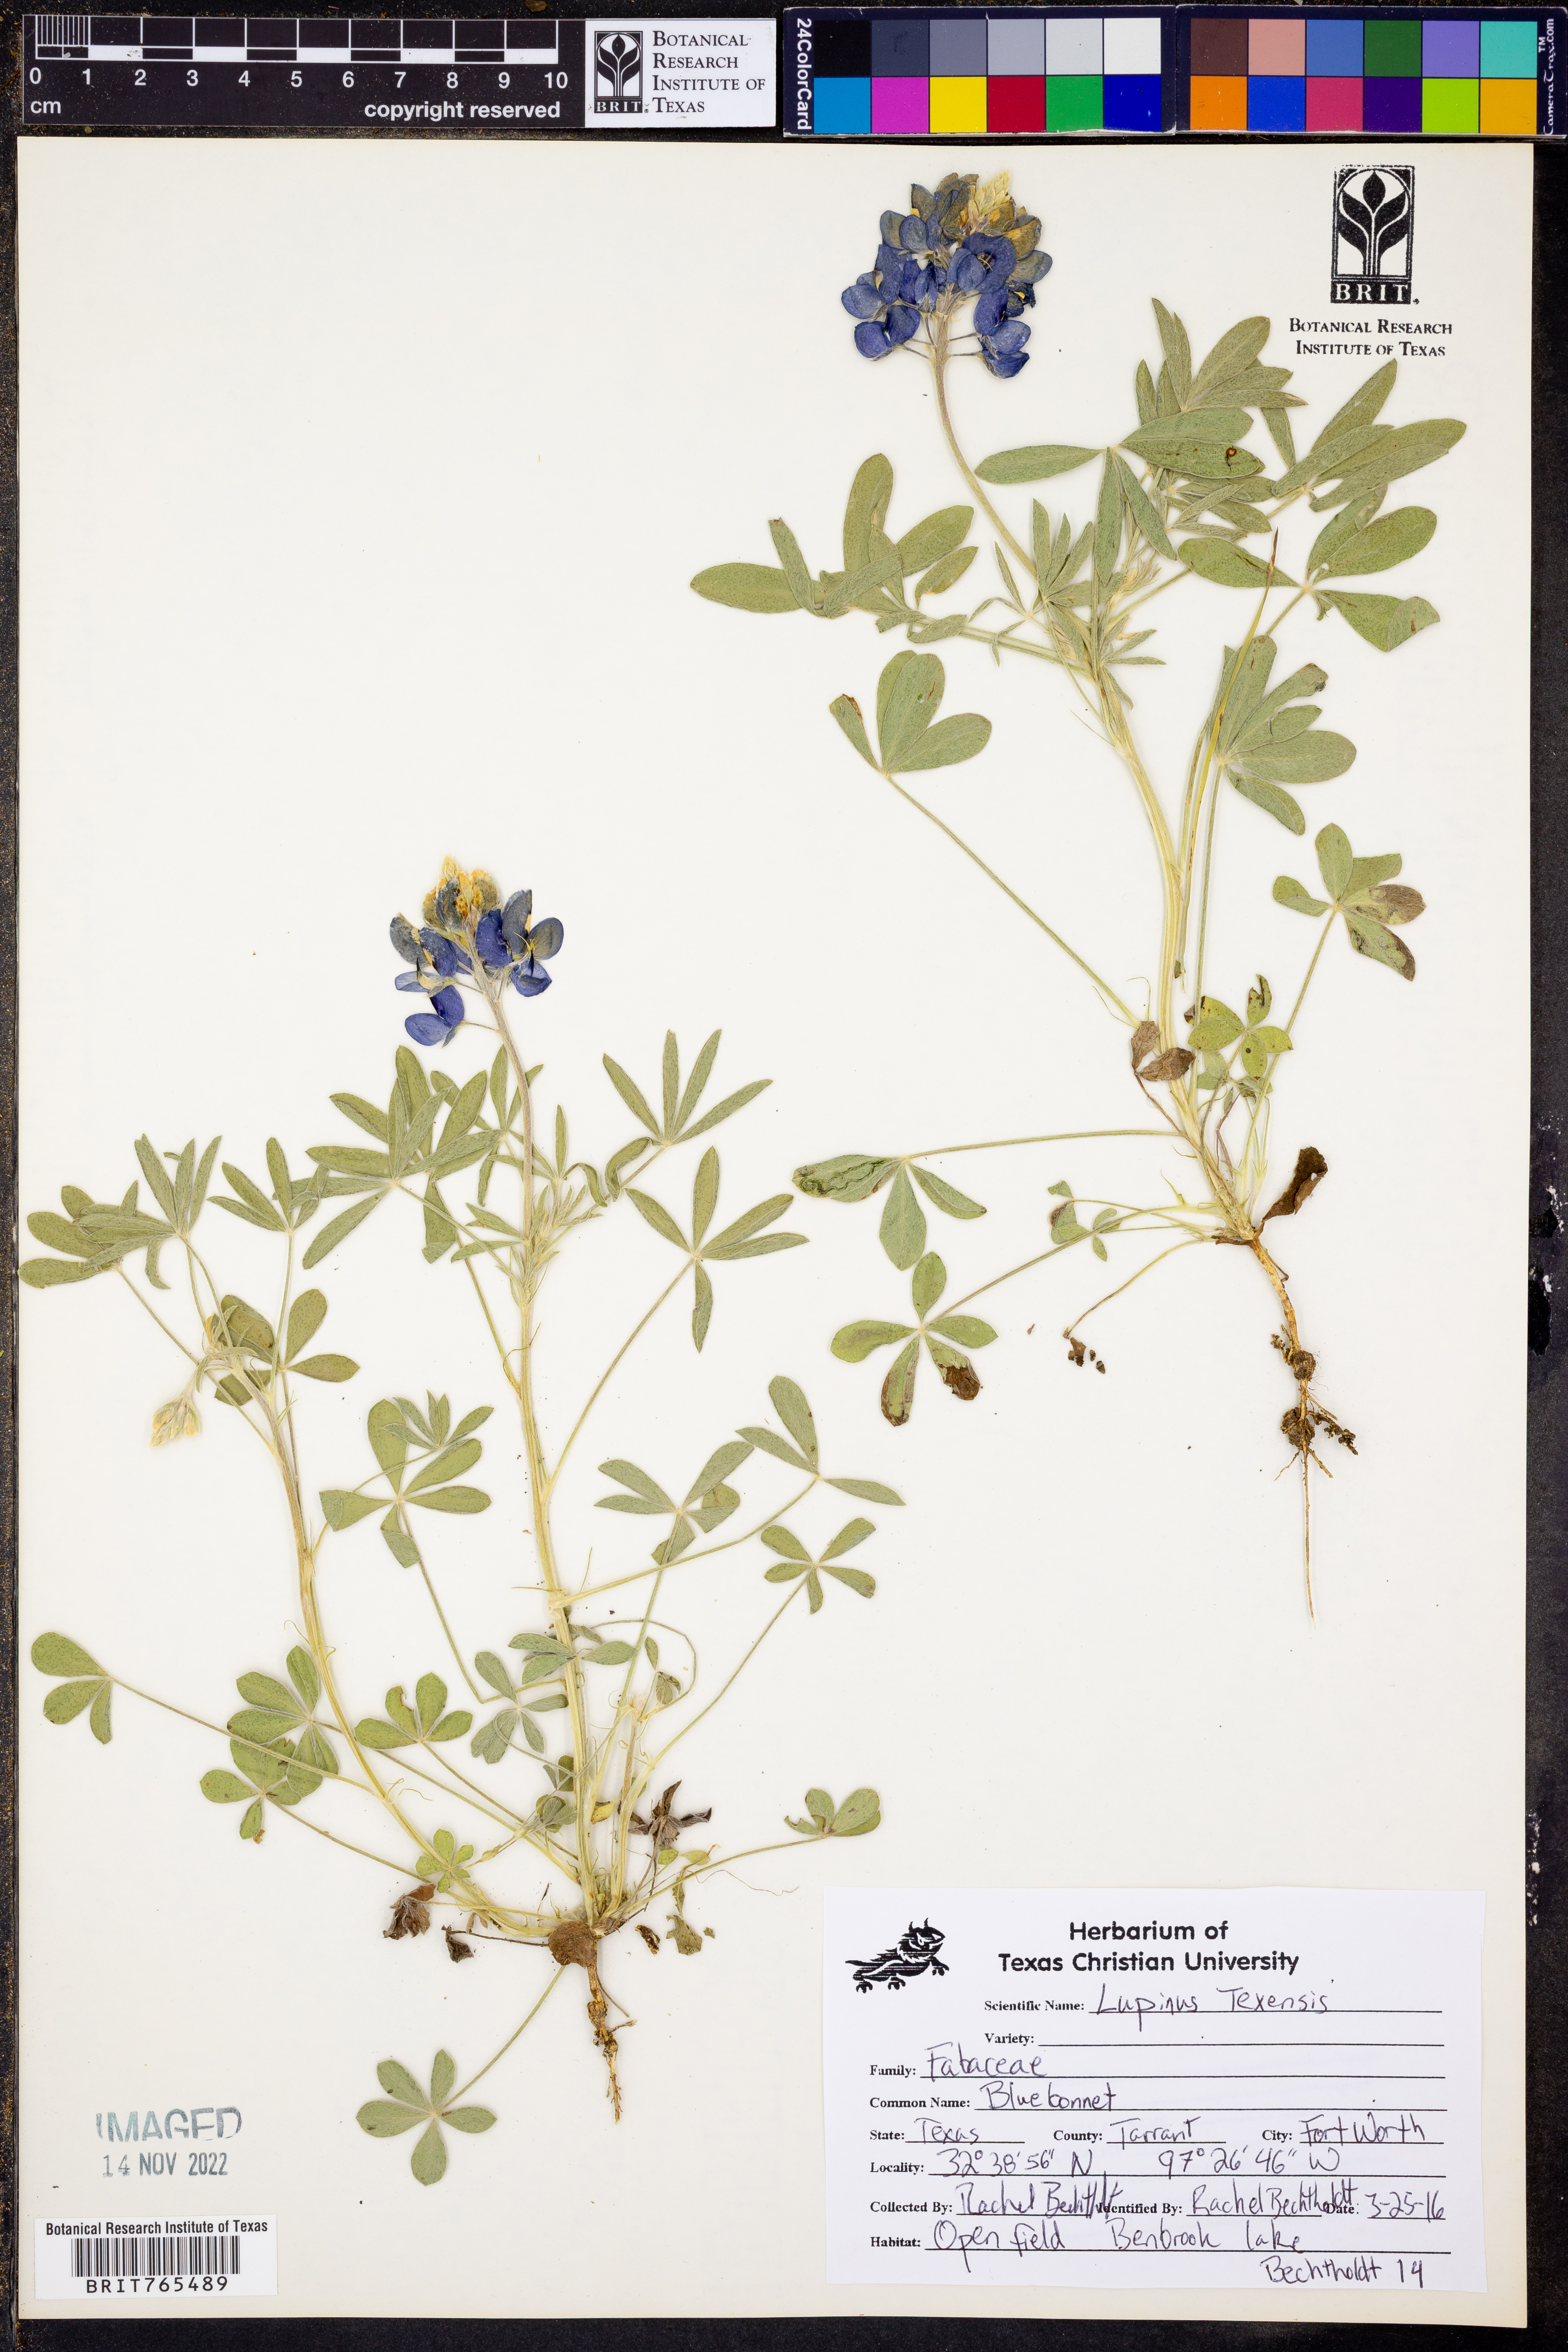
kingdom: Plantae
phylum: Tracheophyta
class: Magnoliopsida
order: Fabales
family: Fabaceae
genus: Lupinus
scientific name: Lupinus texensis
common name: Texas bluebonnet
